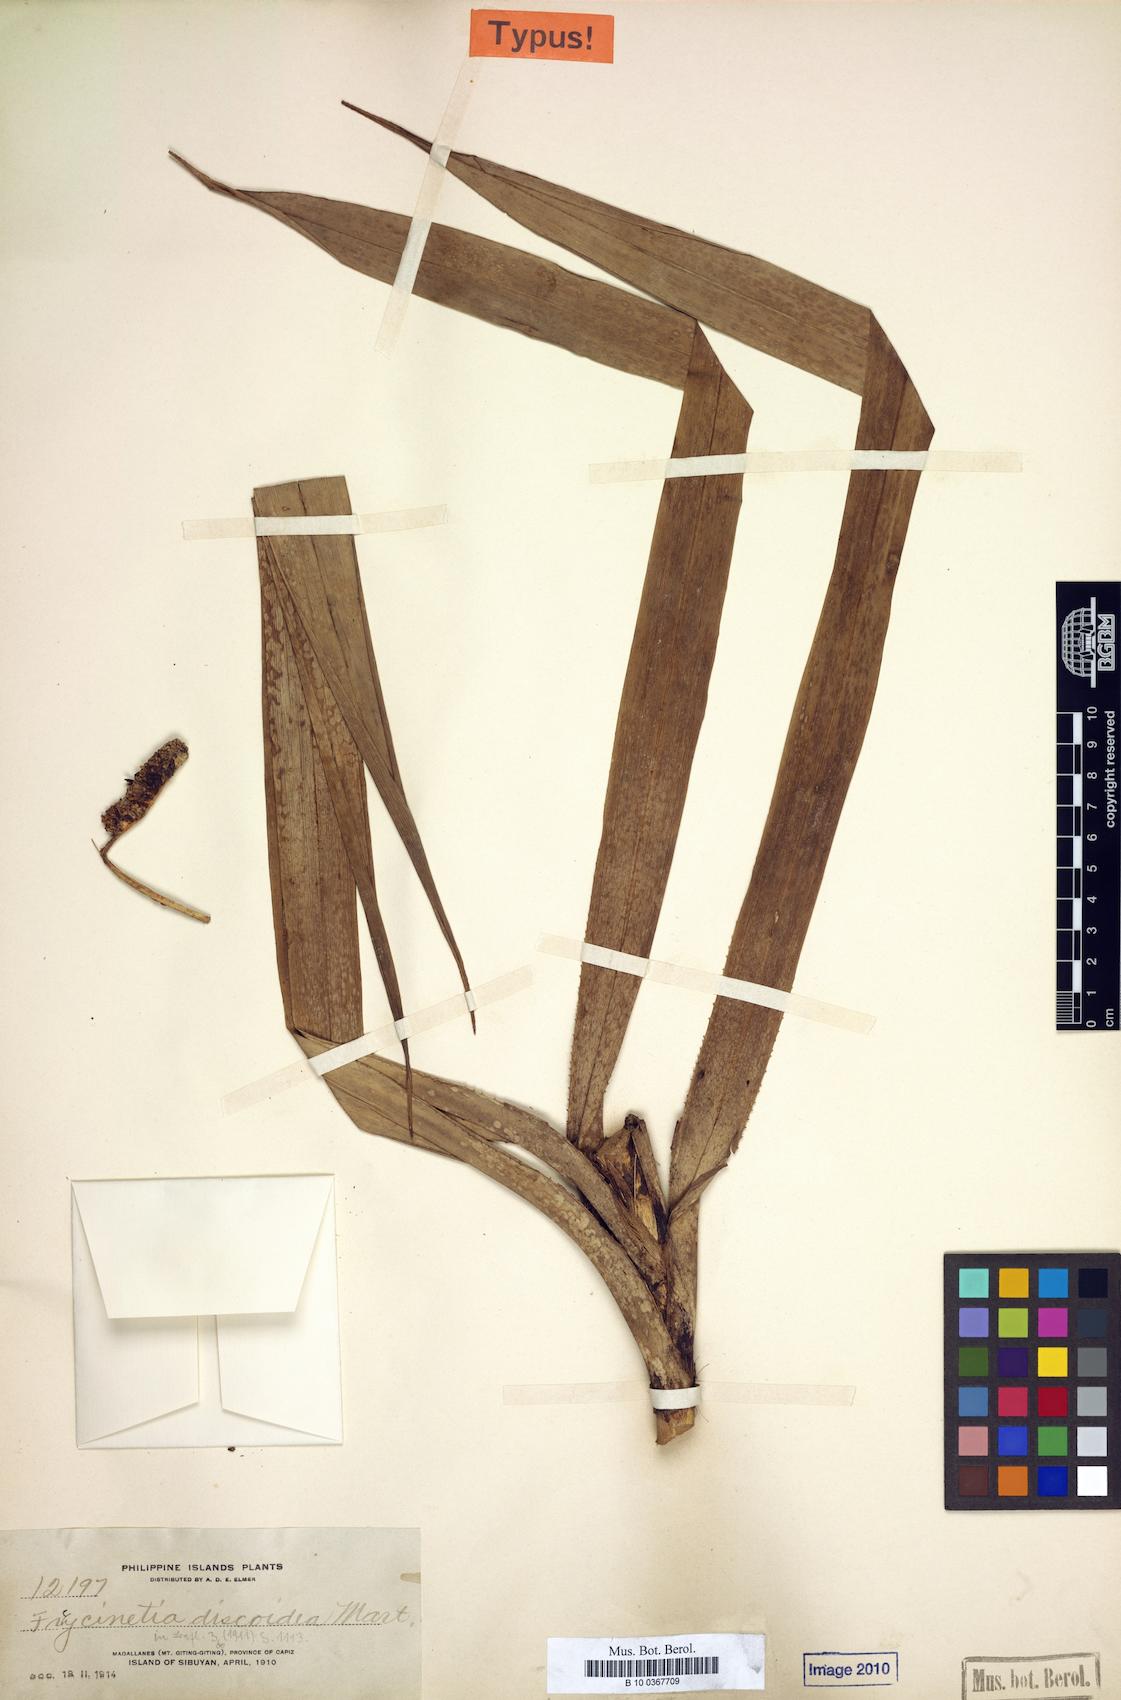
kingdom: Plantae
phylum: Tracheophyta
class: Liliopsida
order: Pandanales
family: Pandanaceae
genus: Freycinetia
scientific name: Freycinetia discoidea
